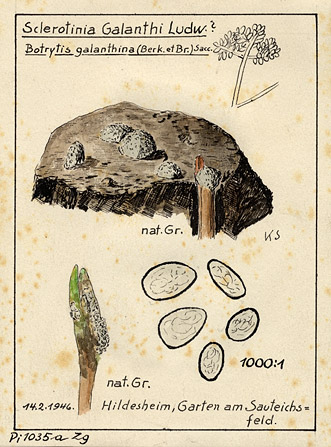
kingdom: Fungi
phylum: Ascomycota
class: Leotiomycetes
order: Helotiales
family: Sclerotiniaceae
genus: Botrytis
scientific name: Botrytis galanthina
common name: Snowdrop grey mould
